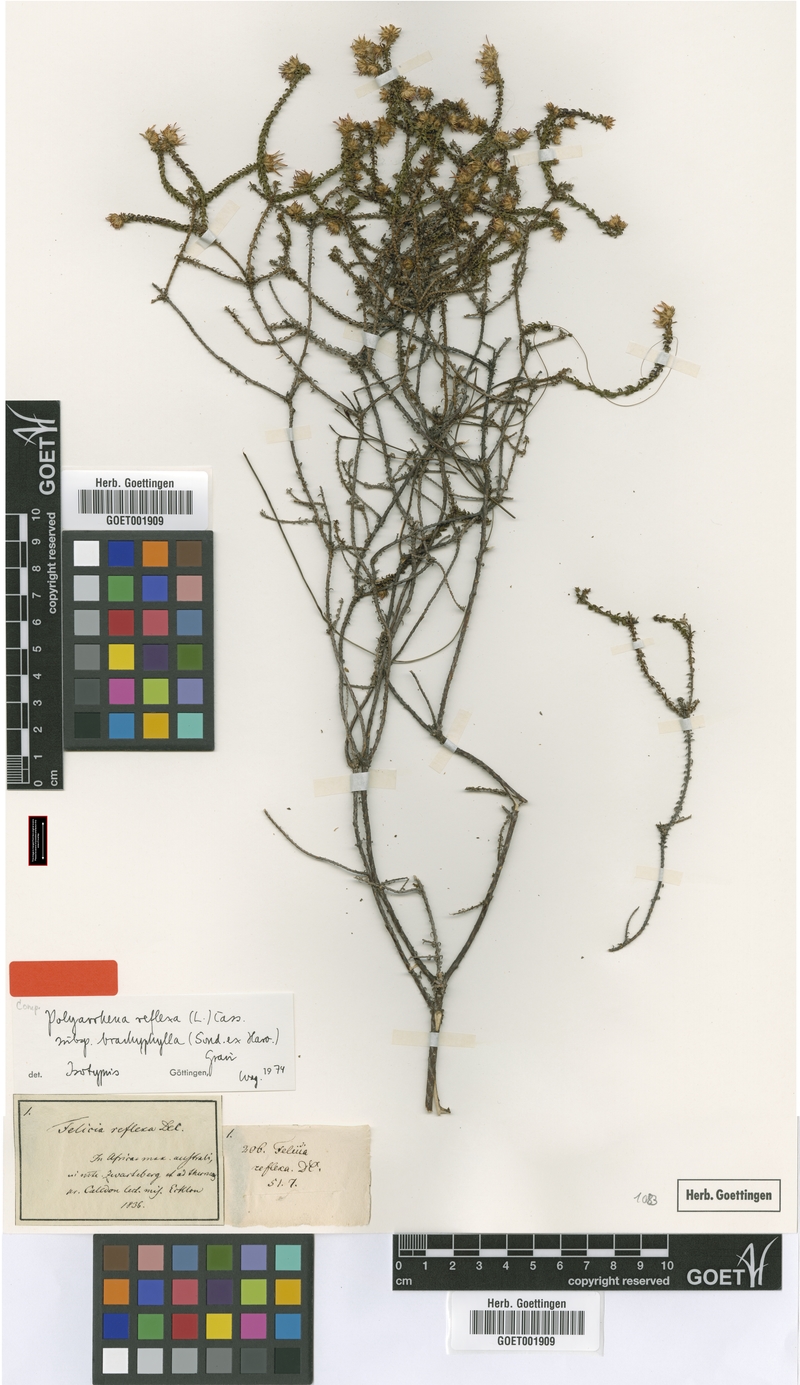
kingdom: Plantae
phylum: Tracheophyta
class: Magnoliopsida
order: Asterales
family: Asteraceae
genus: Polyarrhena
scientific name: Polyarrhena reflexa
